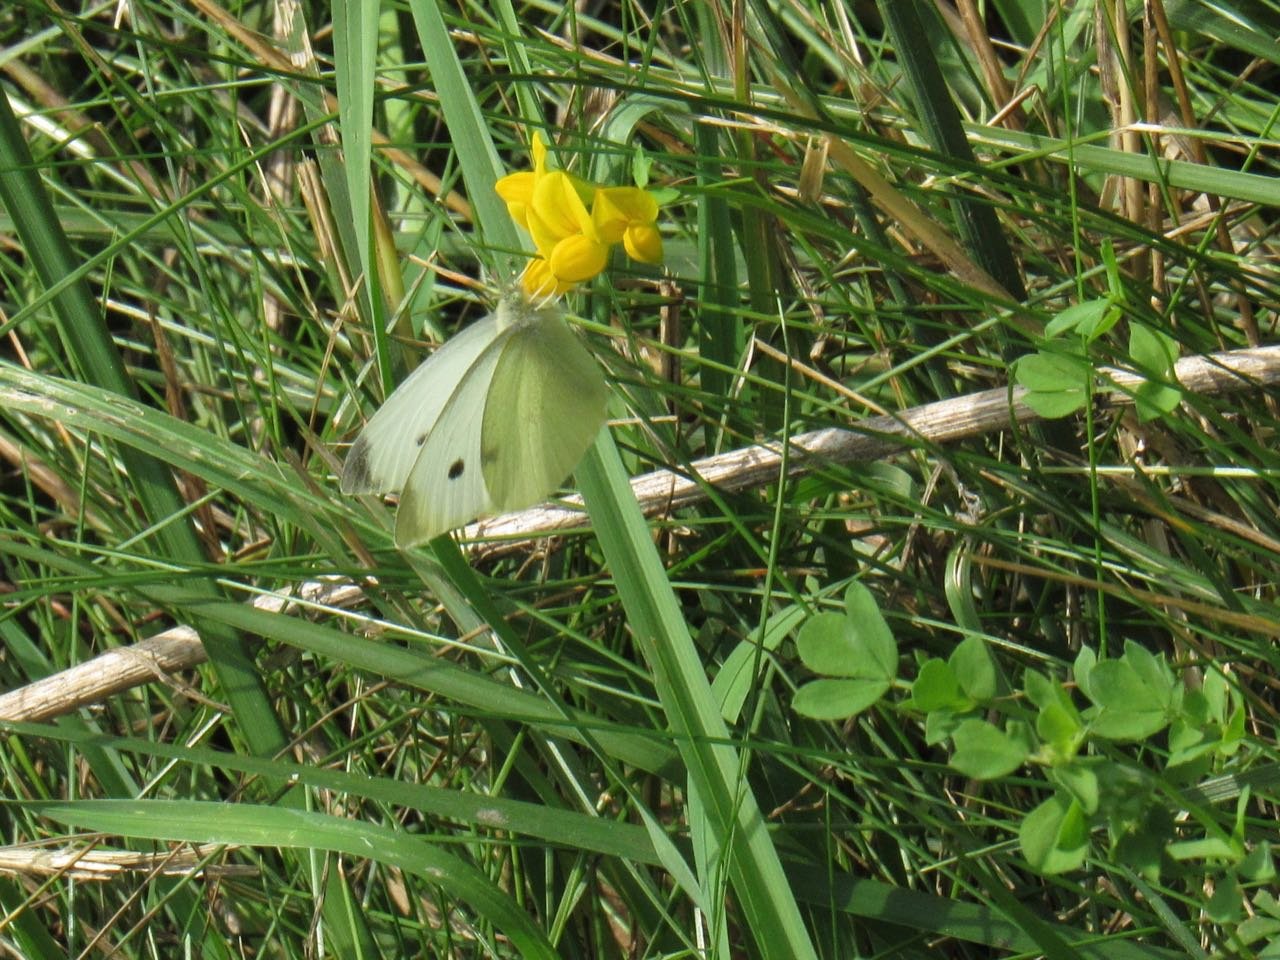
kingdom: Animalia
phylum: Arthropoda
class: Insecta
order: Lepidoptera
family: Pieridae
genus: Pieris
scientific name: Pieris rapae
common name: Cabbage White
